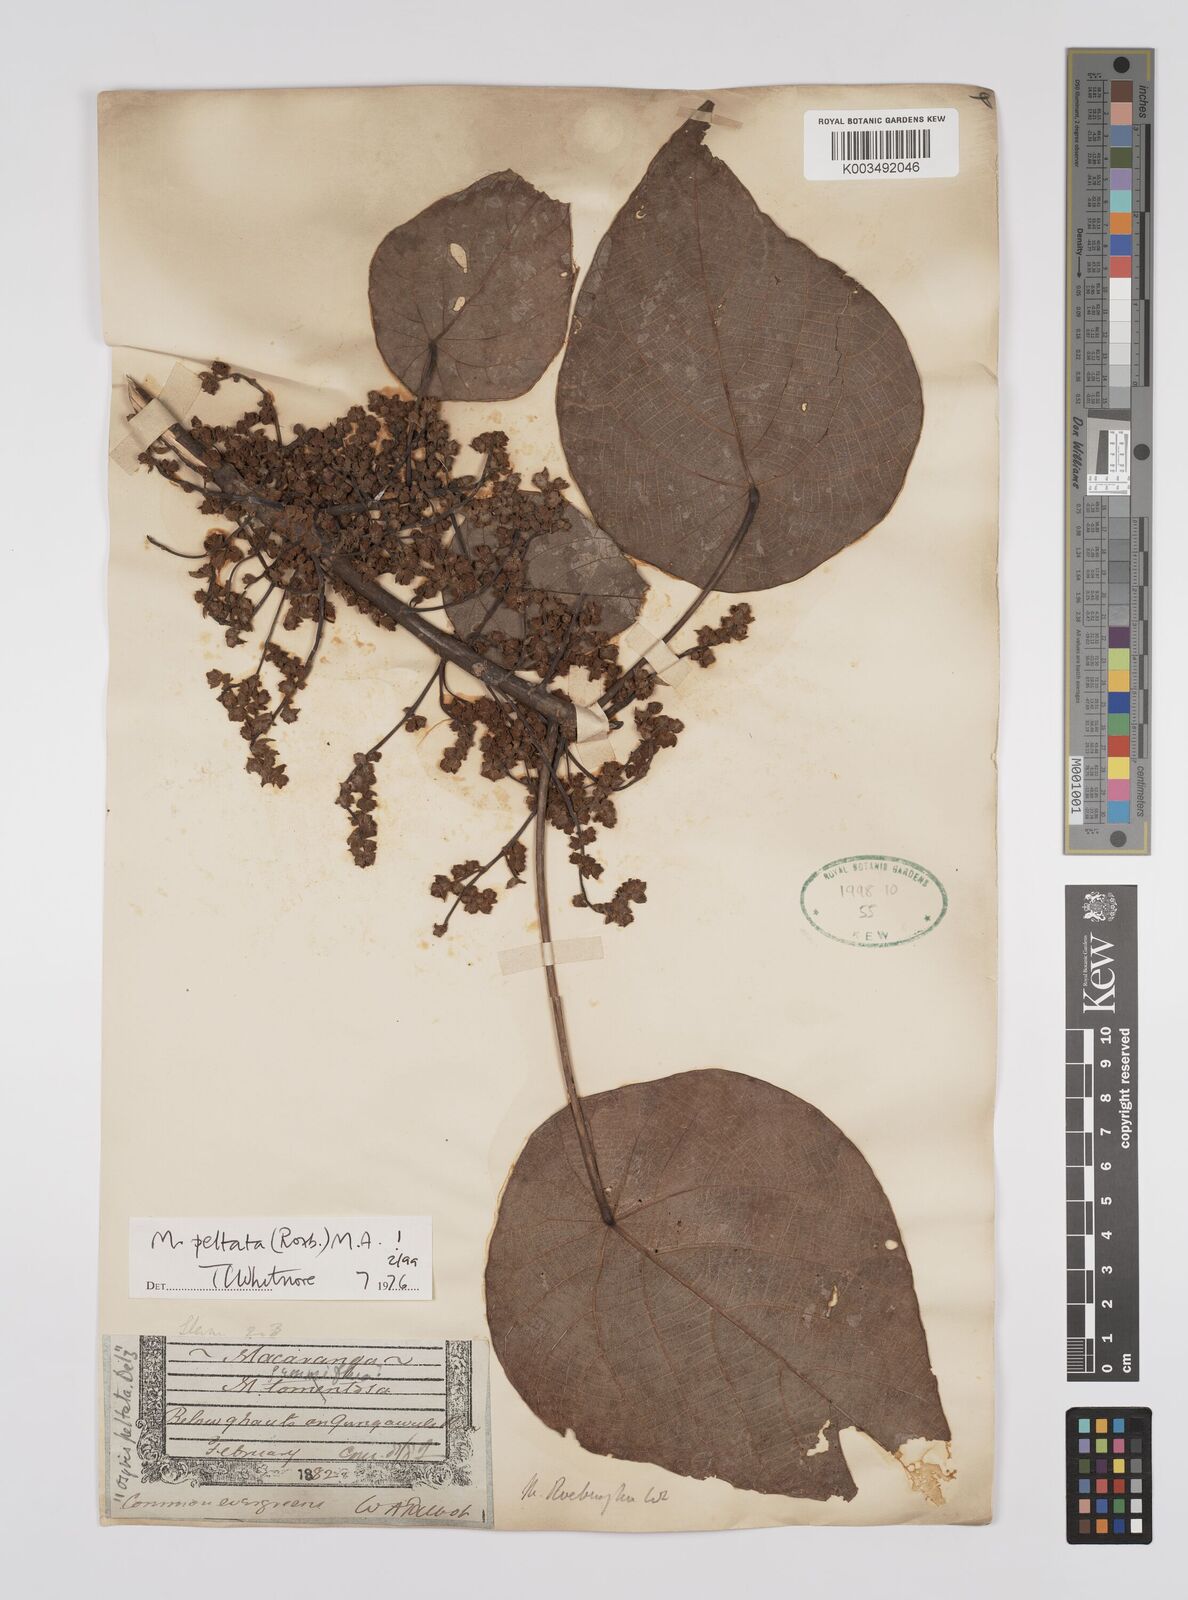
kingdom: Plantae
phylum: Tracheophyta
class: Magnoliopsida
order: Malpighiales
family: Euphorbiaceae
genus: Macaranga
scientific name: Macaranga peltata
